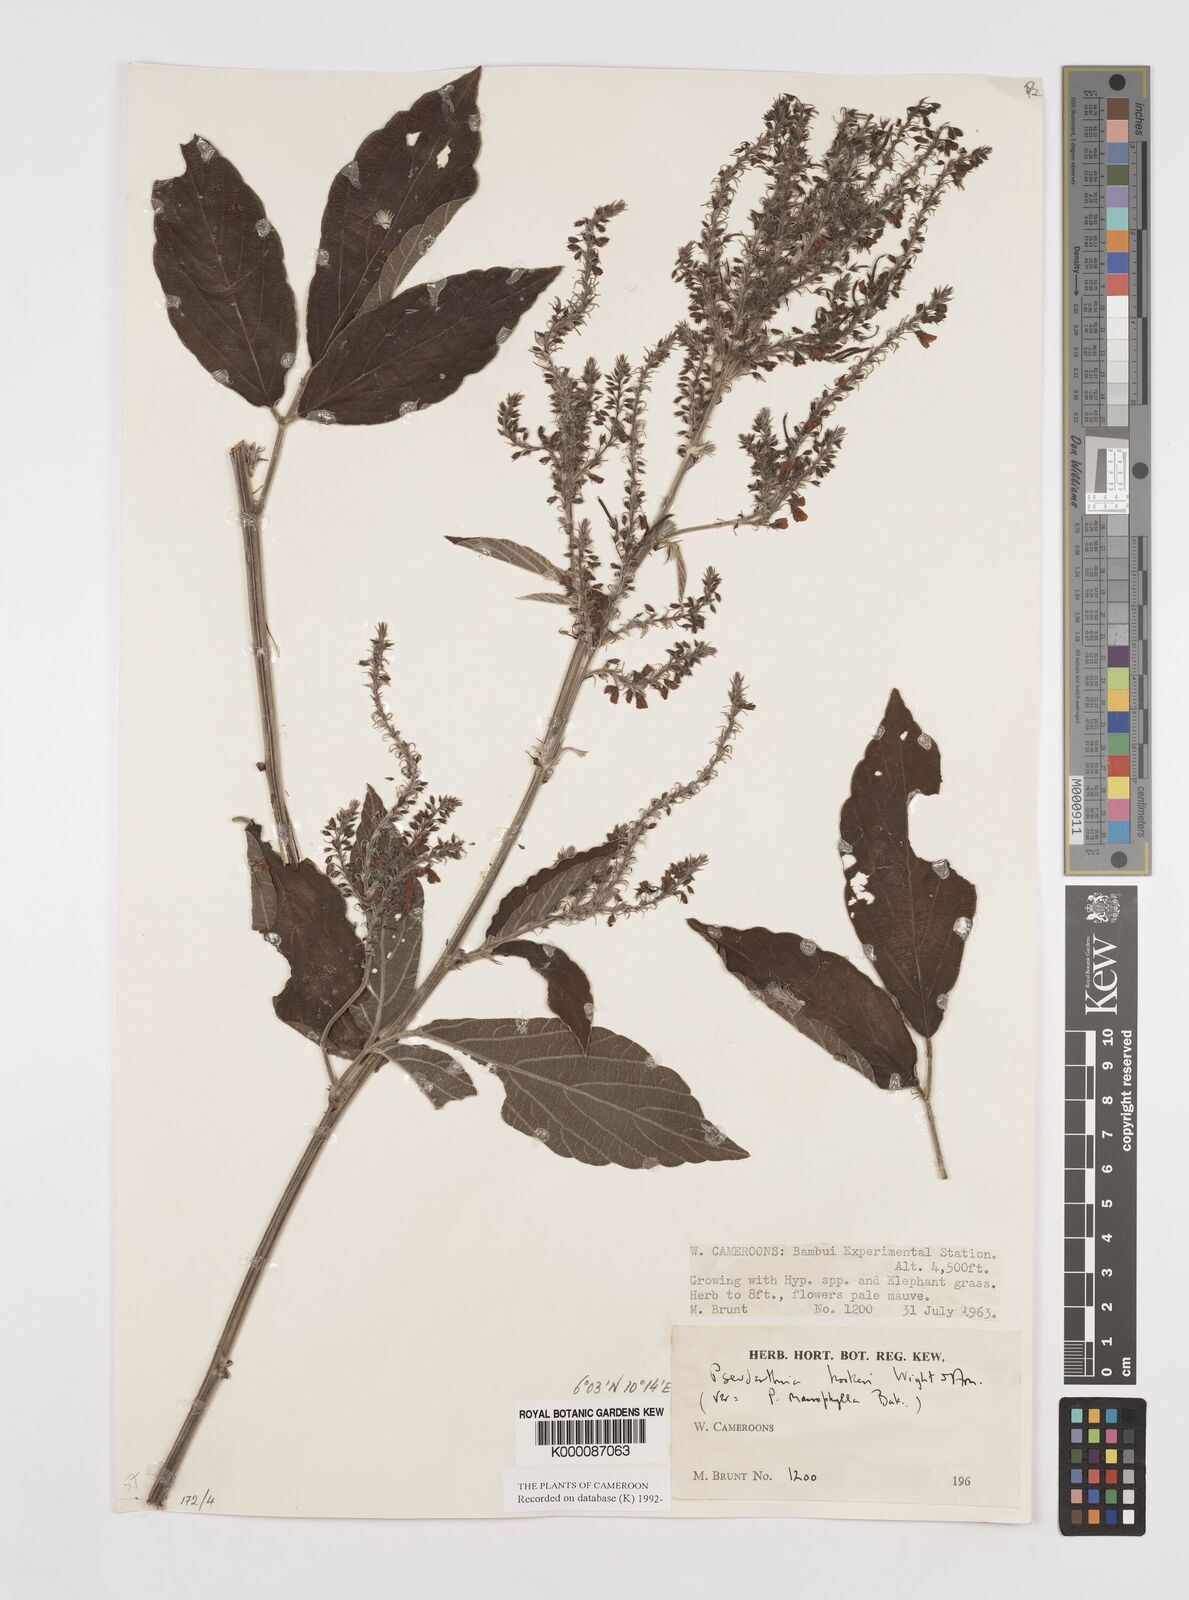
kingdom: Plantae
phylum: Tracheophyta
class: Magnoliopsida
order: Fabales
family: Fabaceae
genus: Pseudarthria
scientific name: Pseudarthria hookeri
